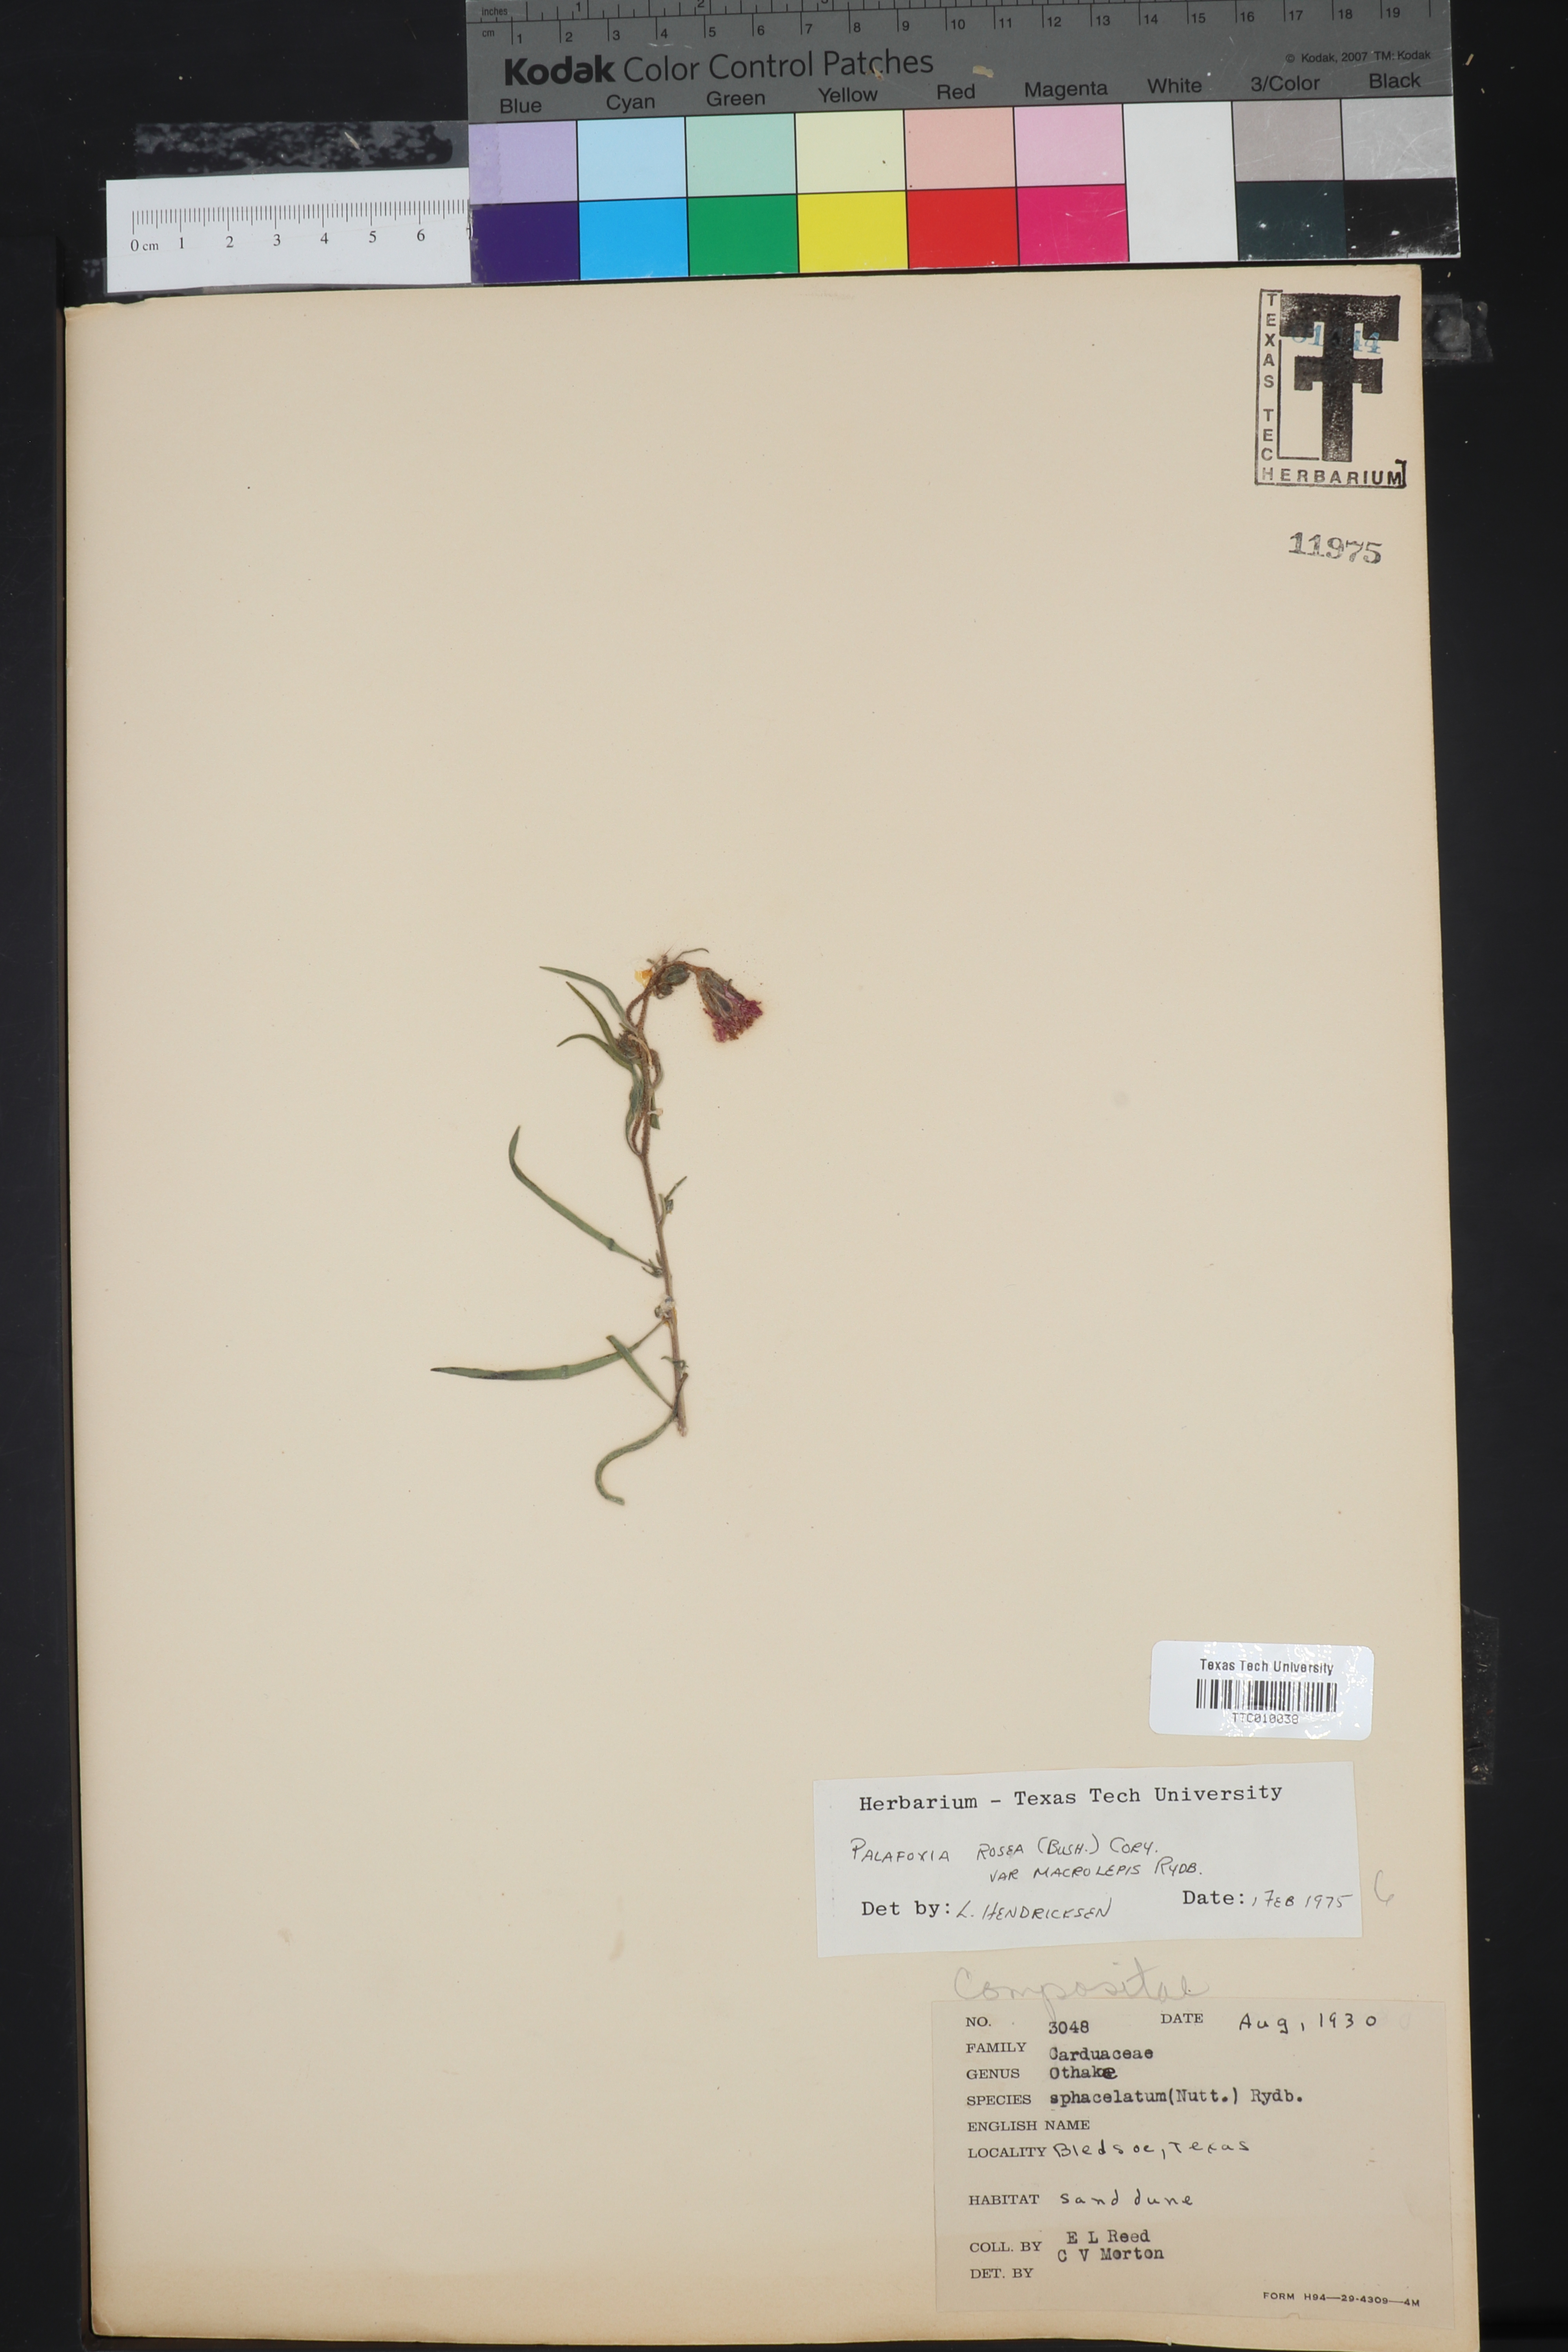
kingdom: Plantae
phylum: Tracheophyta
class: Magnoliopsida
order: Asterales
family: Asteraceae
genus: Palafoxia
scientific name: Palafoxia rosea
